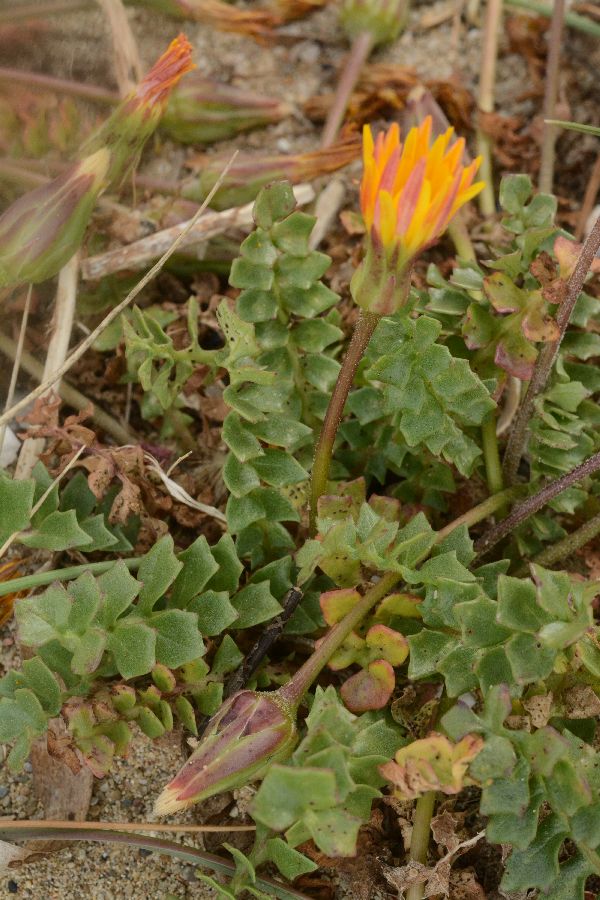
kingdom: Plantae
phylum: Tracheophyta
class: Magnoliopsida
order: Asterales
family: Asteraceae
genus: Hyoseris
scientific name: Hyoseris lucida
